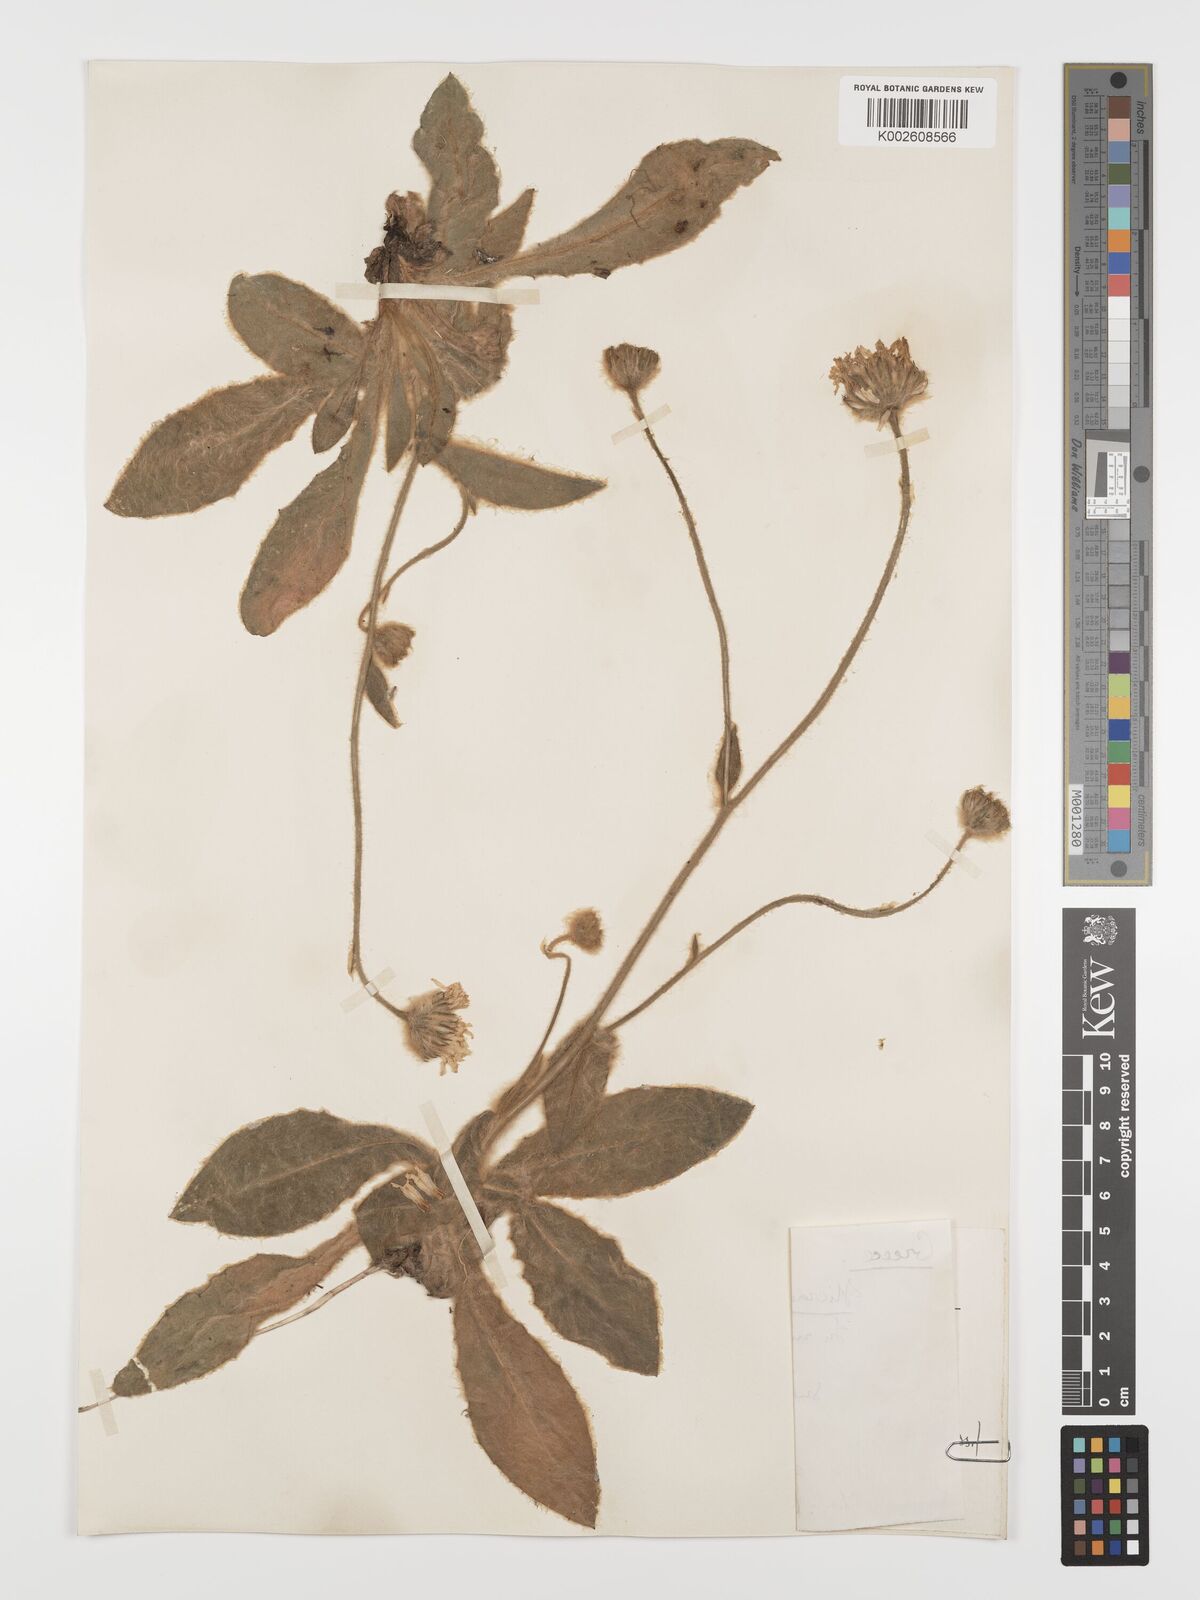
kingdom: Plantae
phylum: Tracheophyta
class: Magnoliopsida
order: Asterales
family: Asteraceae
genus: Hieracium
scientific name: Hieracium pannosum
